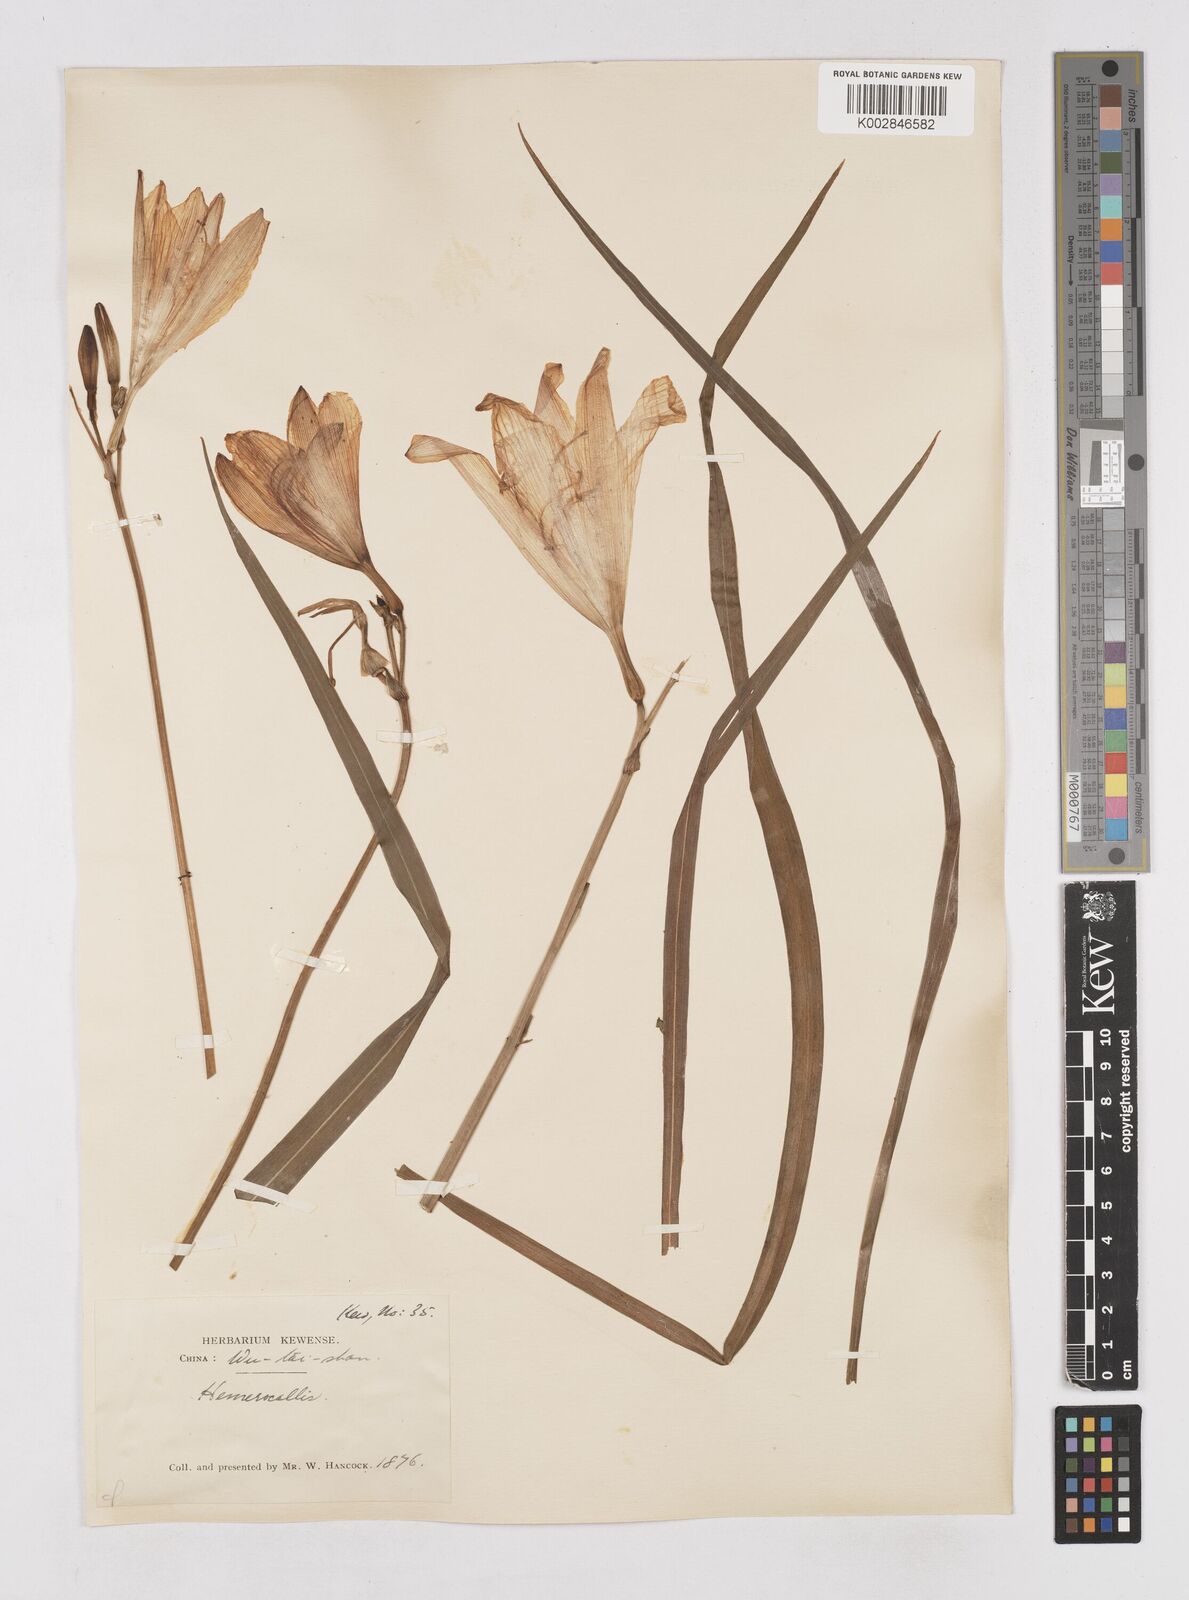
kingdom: Plantae
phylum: Tracheophyta
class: Liliopsida
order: Asparagales
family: Asphodelaceae
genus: Hemerocallis
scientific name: Hemerocallis minor
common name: Small daylily
